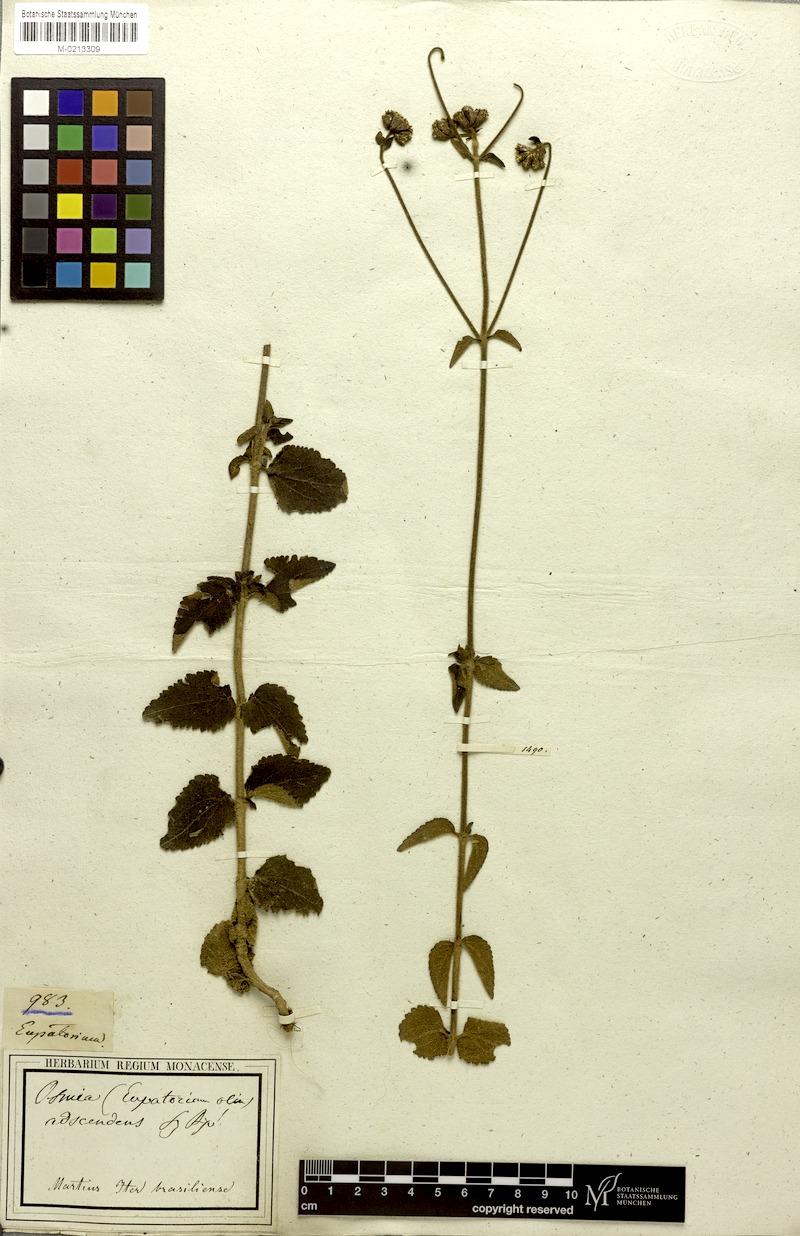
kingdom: Plantae
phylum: Tracheophyta
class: Magnoliopsida
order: Asterales
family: Asteraceae
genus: Chromolaena
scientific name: Chromolaena squarrulosa
